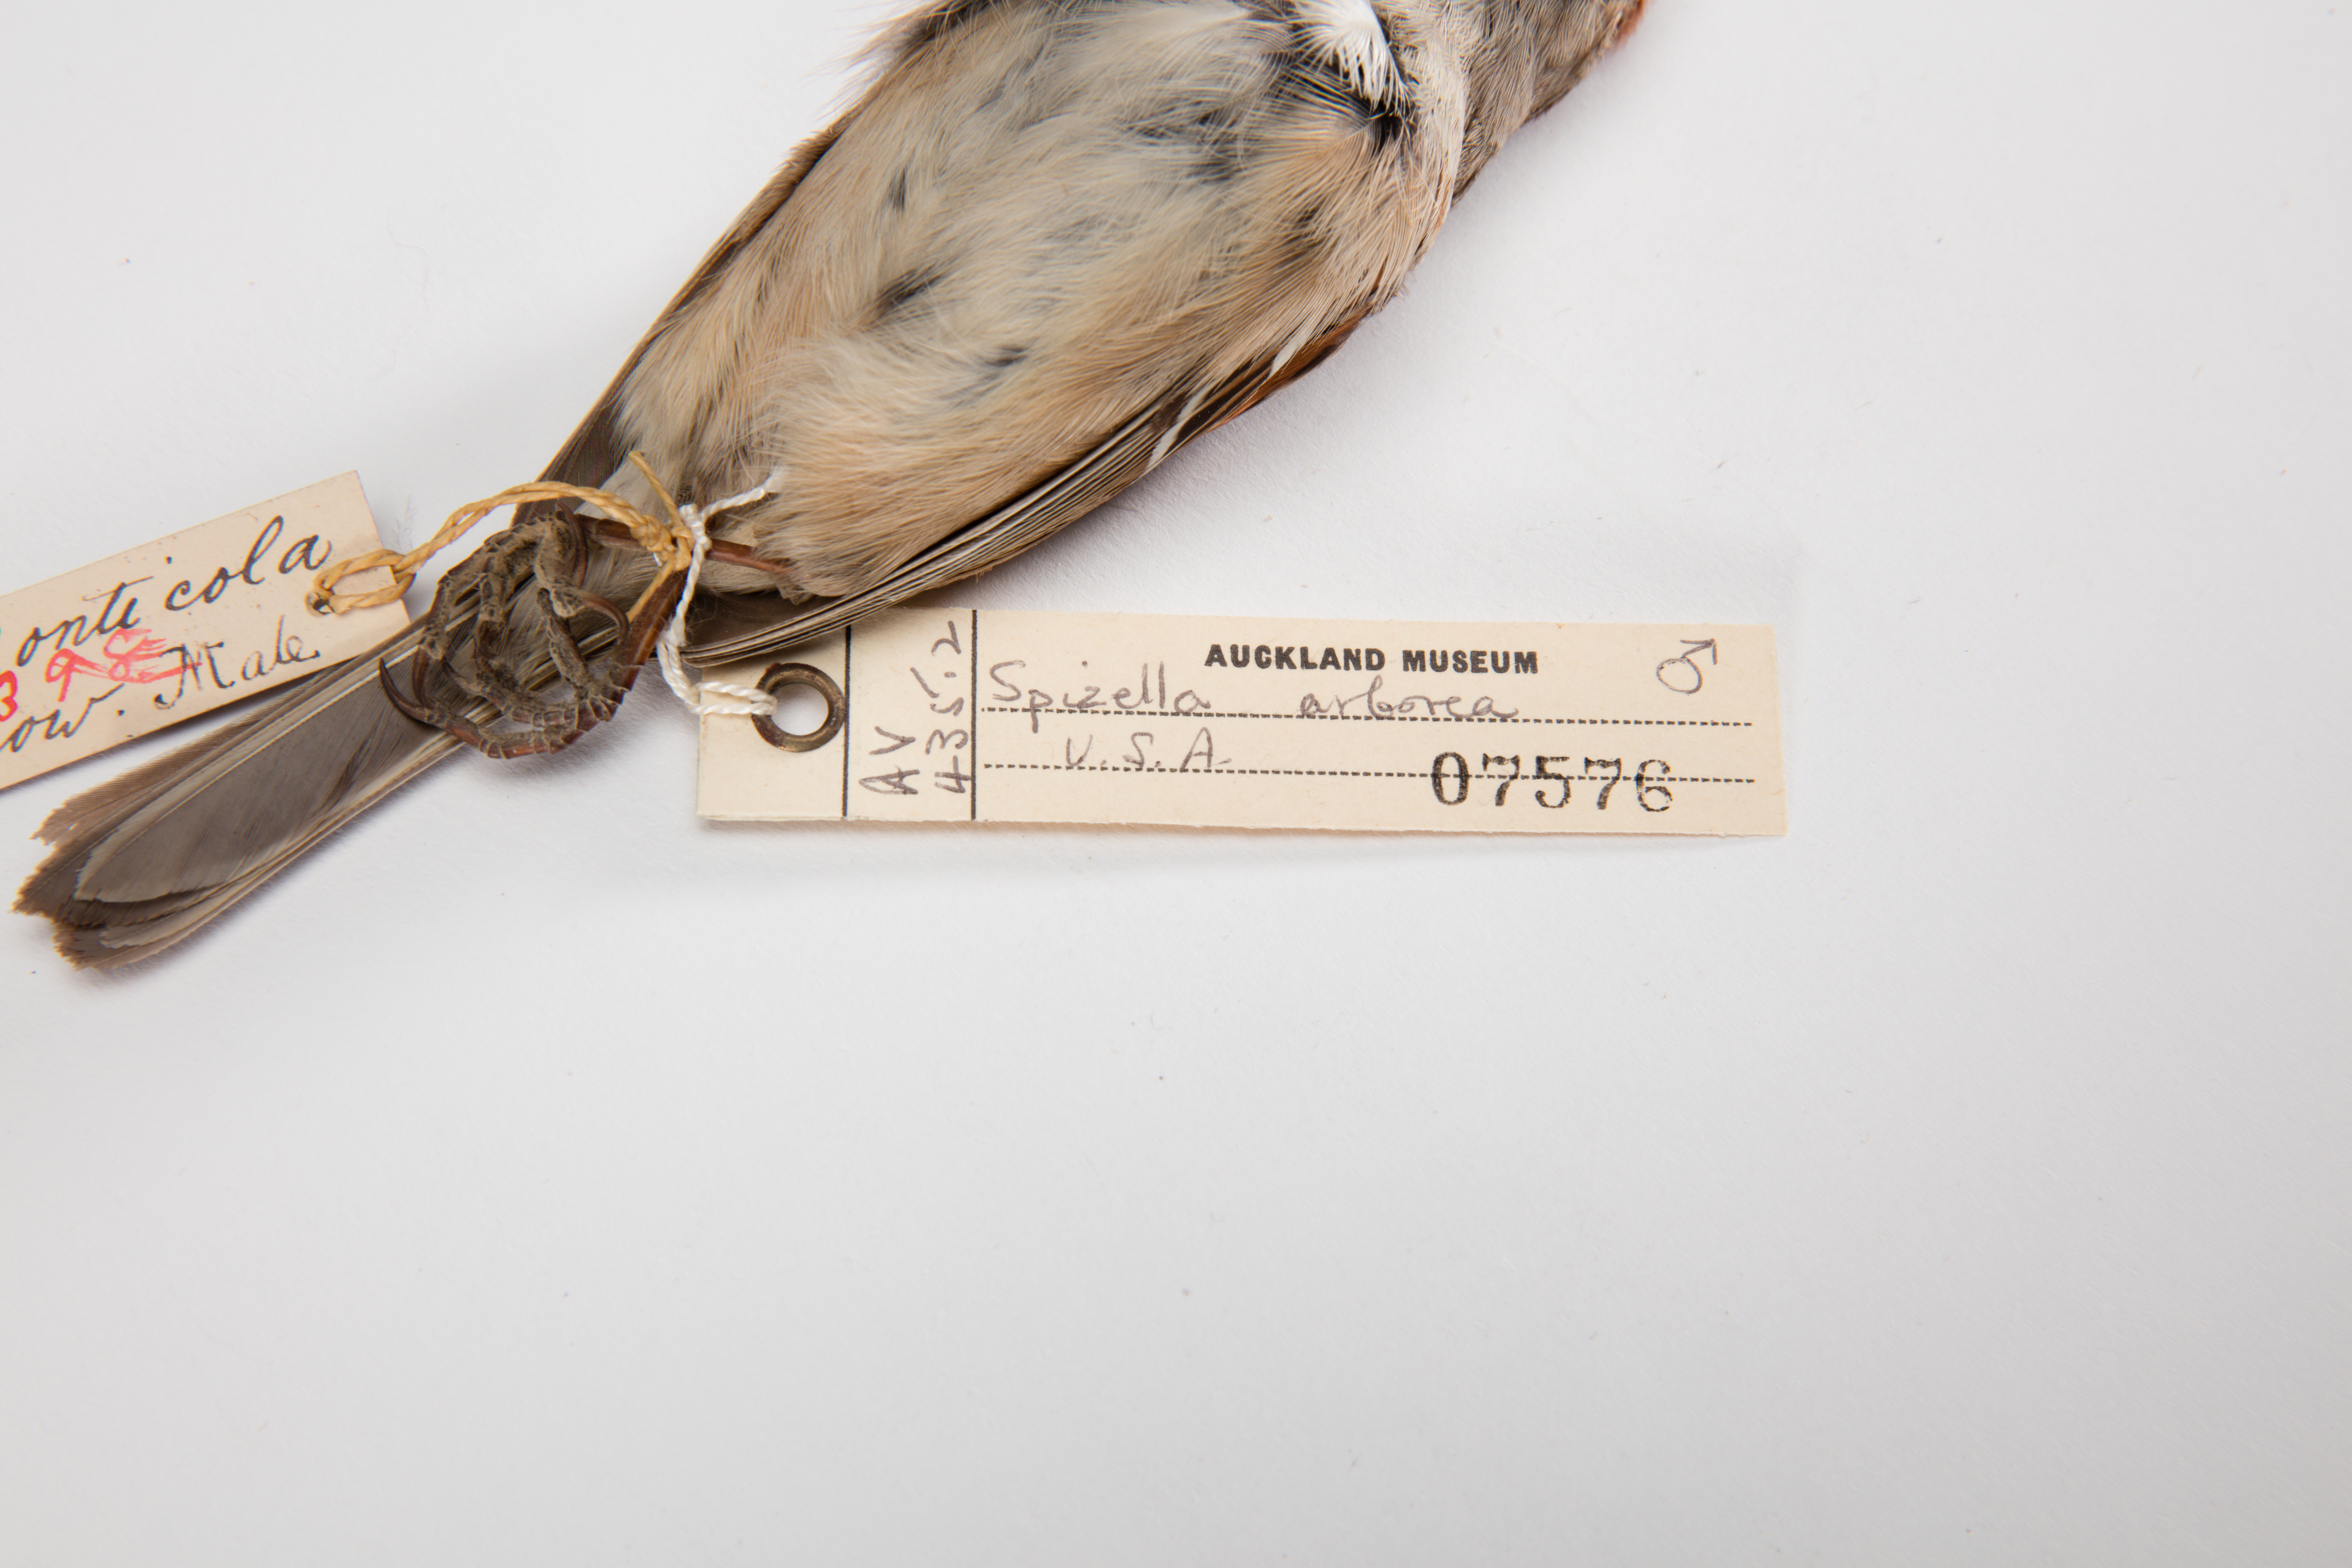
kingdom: Animalia
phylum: Chordata
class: Aves
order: Passeriformes
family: Passerellidae
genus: Spizelloides
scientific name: Spizelloides arborea
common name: American tree sparrow
